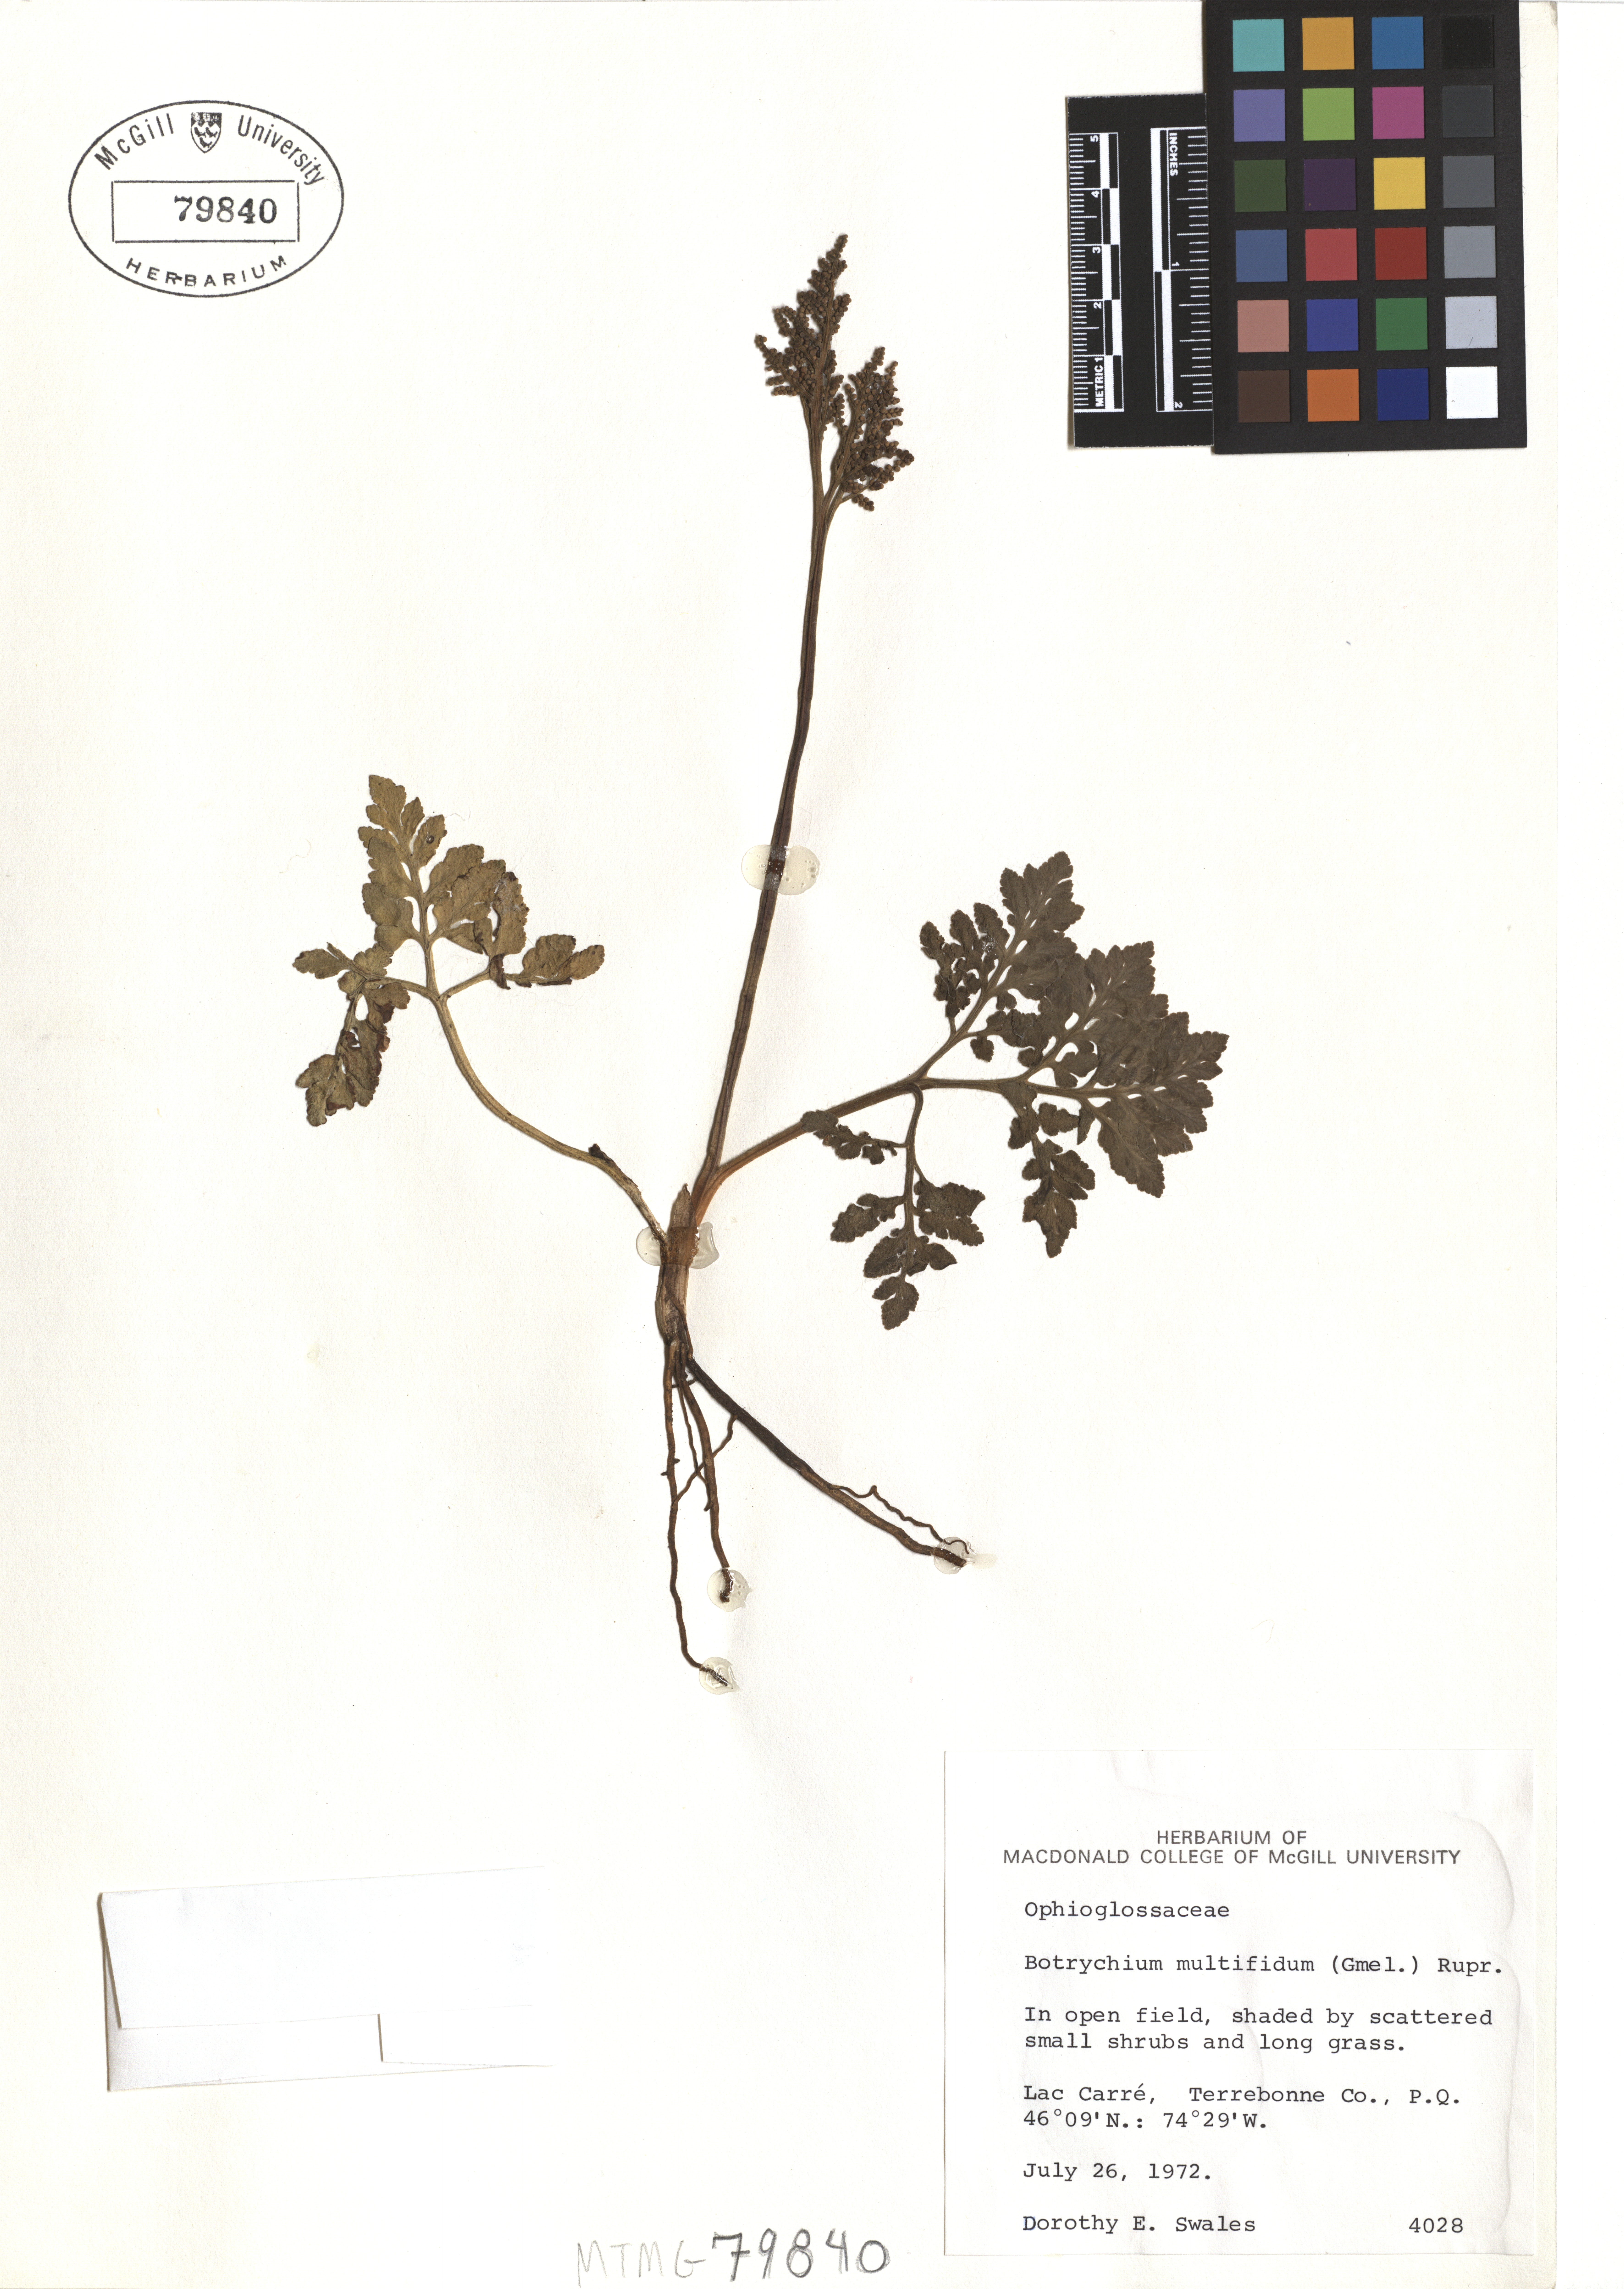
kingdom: Plantae
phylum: Tracheophyta
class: Polypodiopsida
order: Ophioglossales
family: Ophioglossaceae
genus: Sceptridium
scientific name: Sceptridium multifidum
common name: Leathery grape fern
